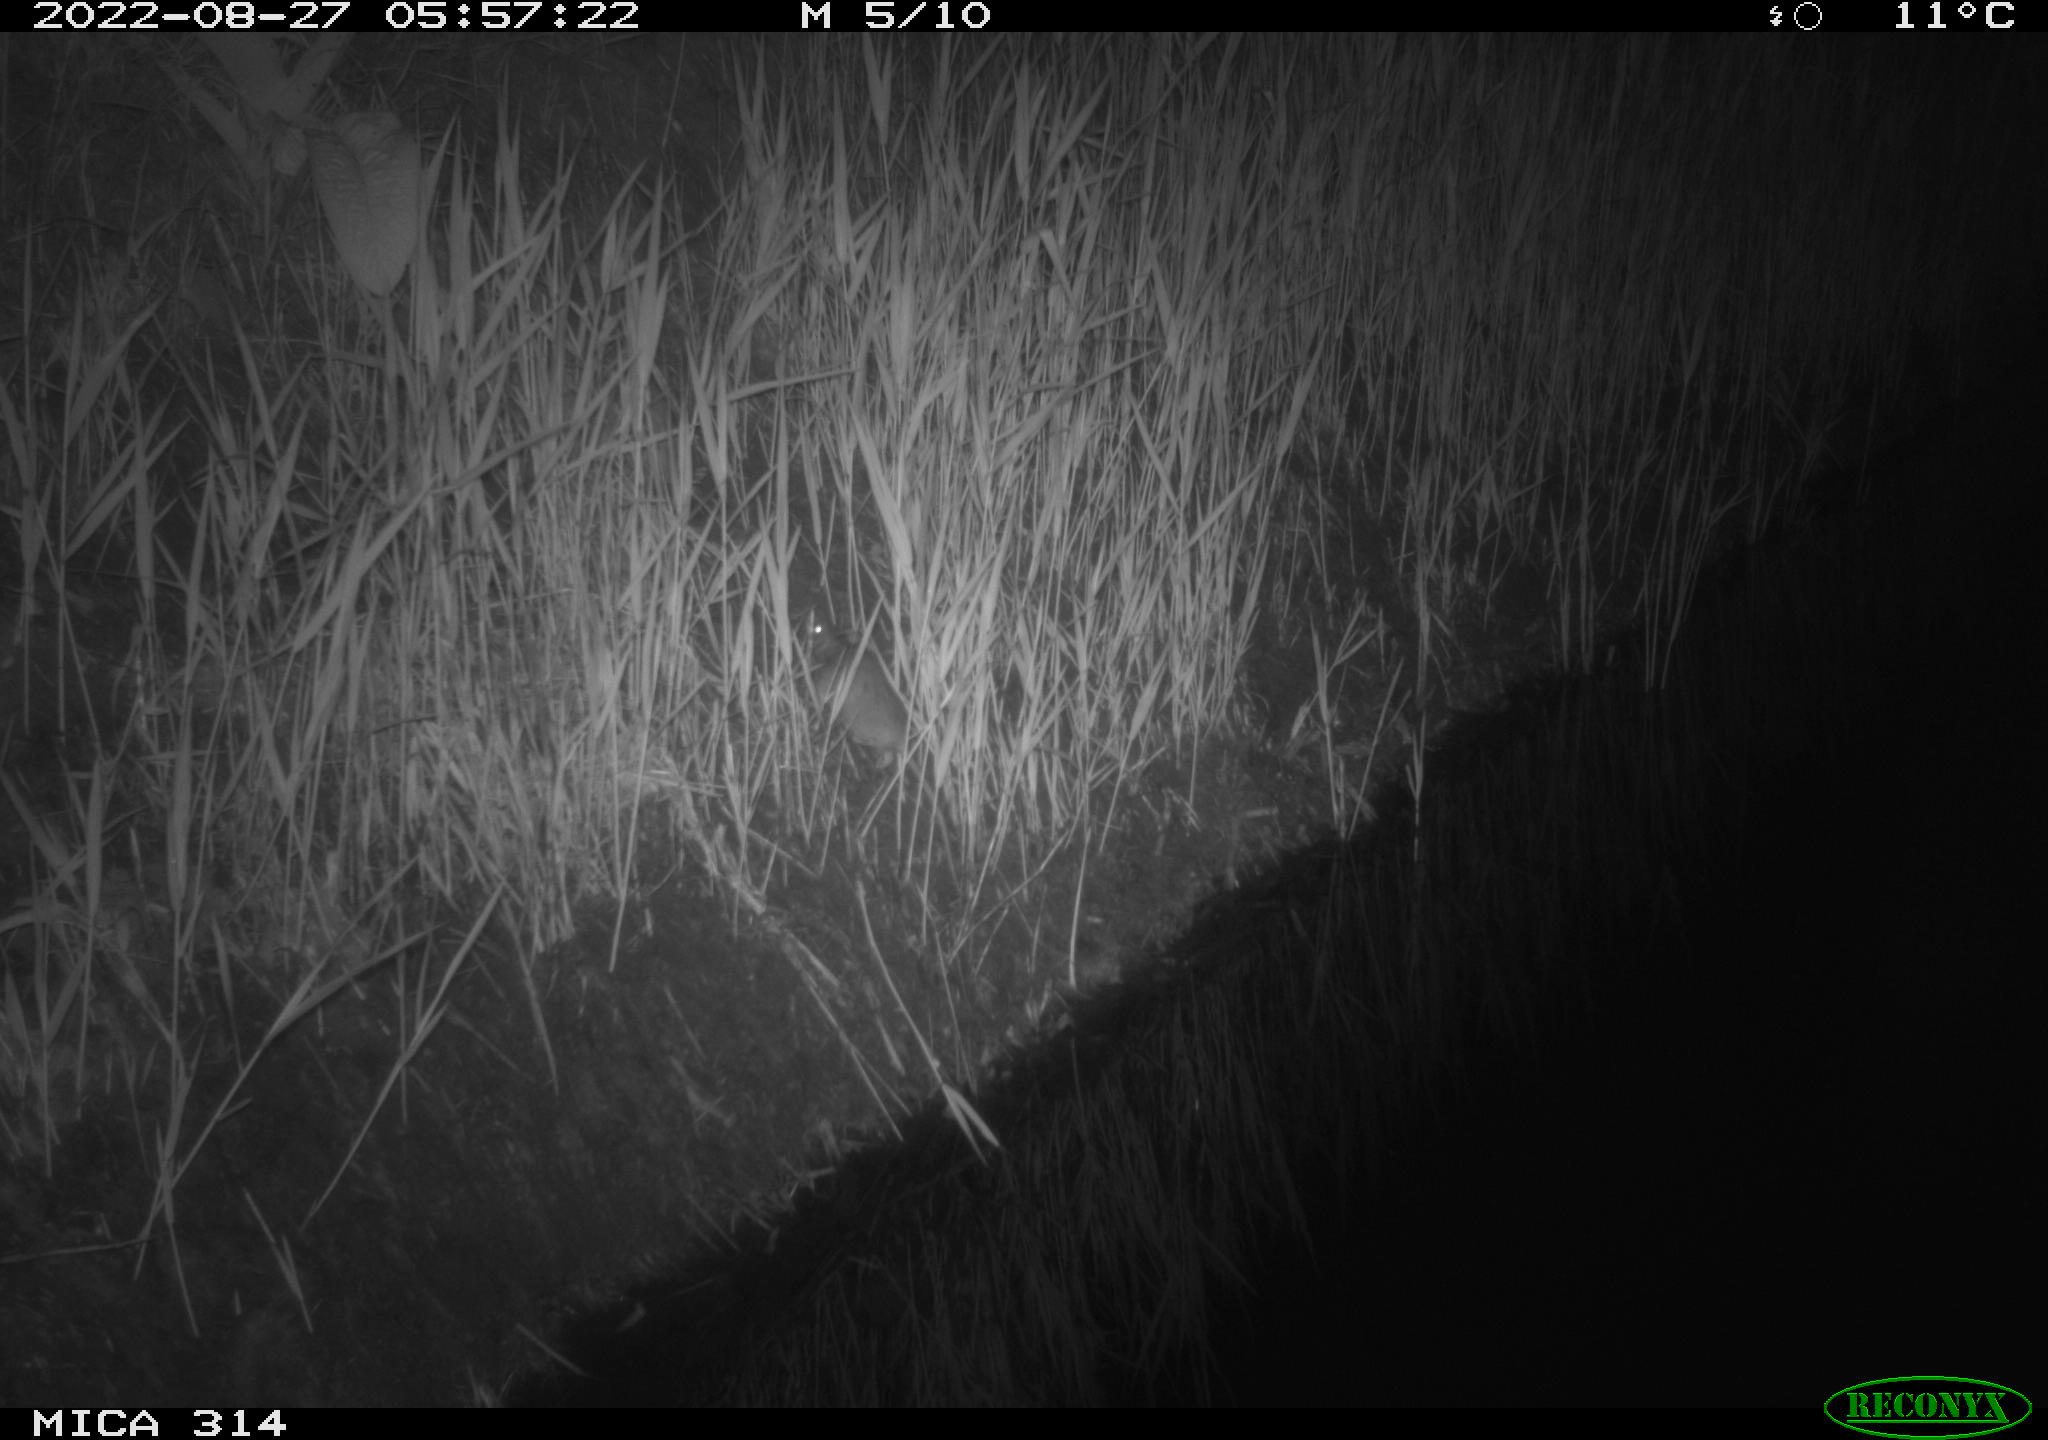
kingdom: Animalia
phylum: Chordata
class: Mammalia
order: Rodentia
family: Muridae
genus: Rattus
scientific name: Rattus norvegicus
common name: Brown rat
